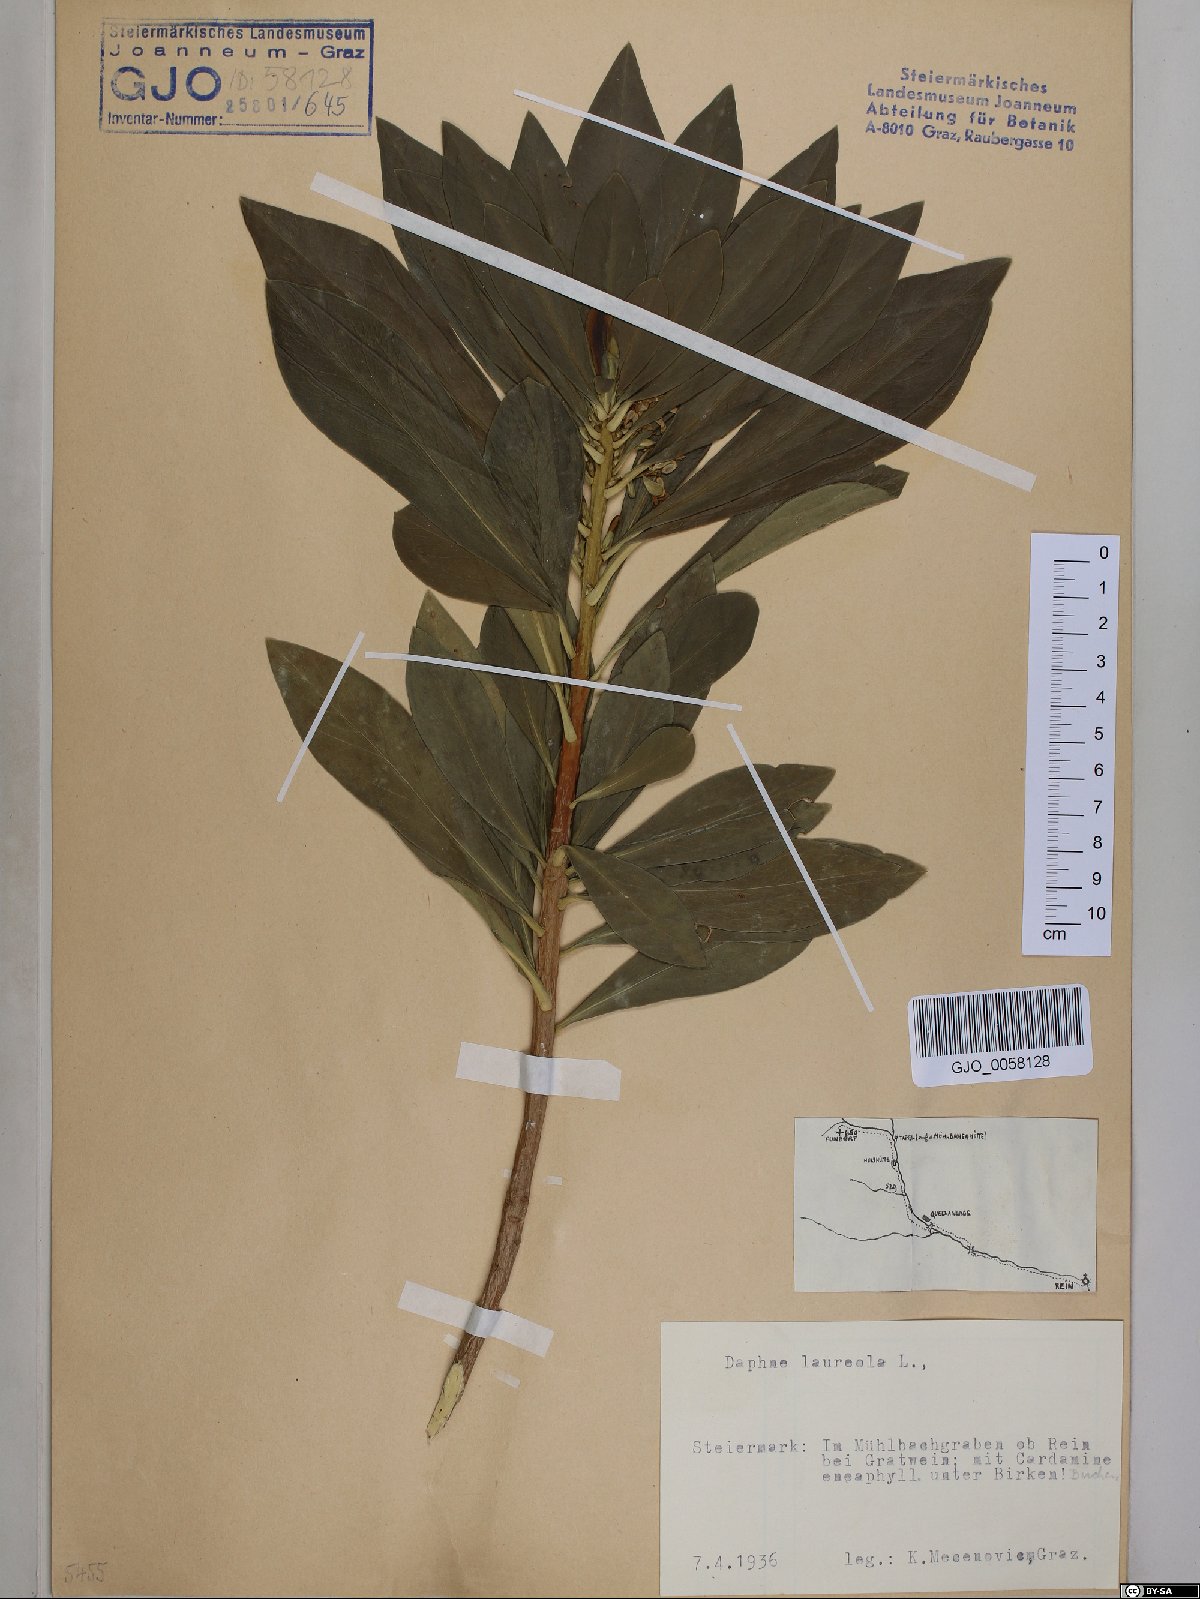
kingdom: Plantae
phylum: Tracheophyta
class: Magnoliopsida
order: Malvales
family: Thymelaeaceae
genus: Daphne
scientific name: Daphne laureola
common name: Spurge-laurel
